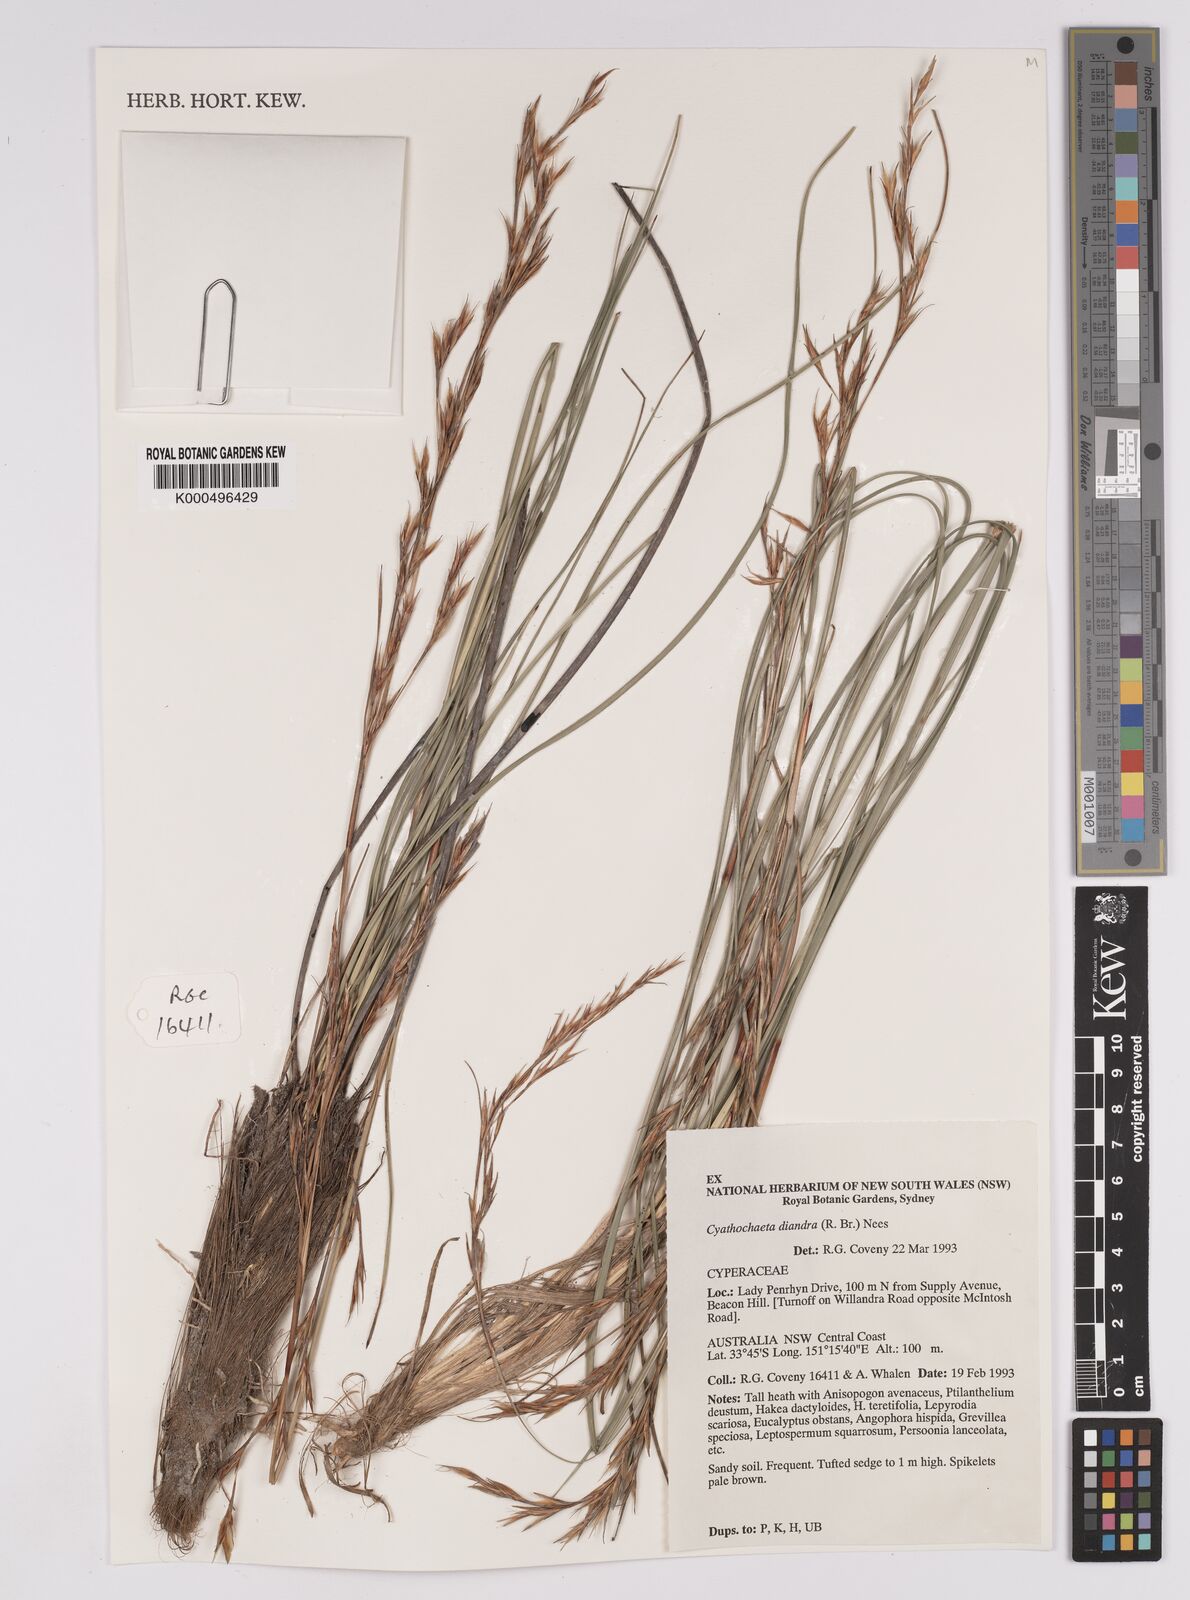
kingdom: Plantae
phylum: Tracheophyta
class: Liliopsida
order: Poales
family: Cyperaceae
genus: Cyathochaeta
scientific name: Cyathochaeta diandra
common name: Sheath rush
